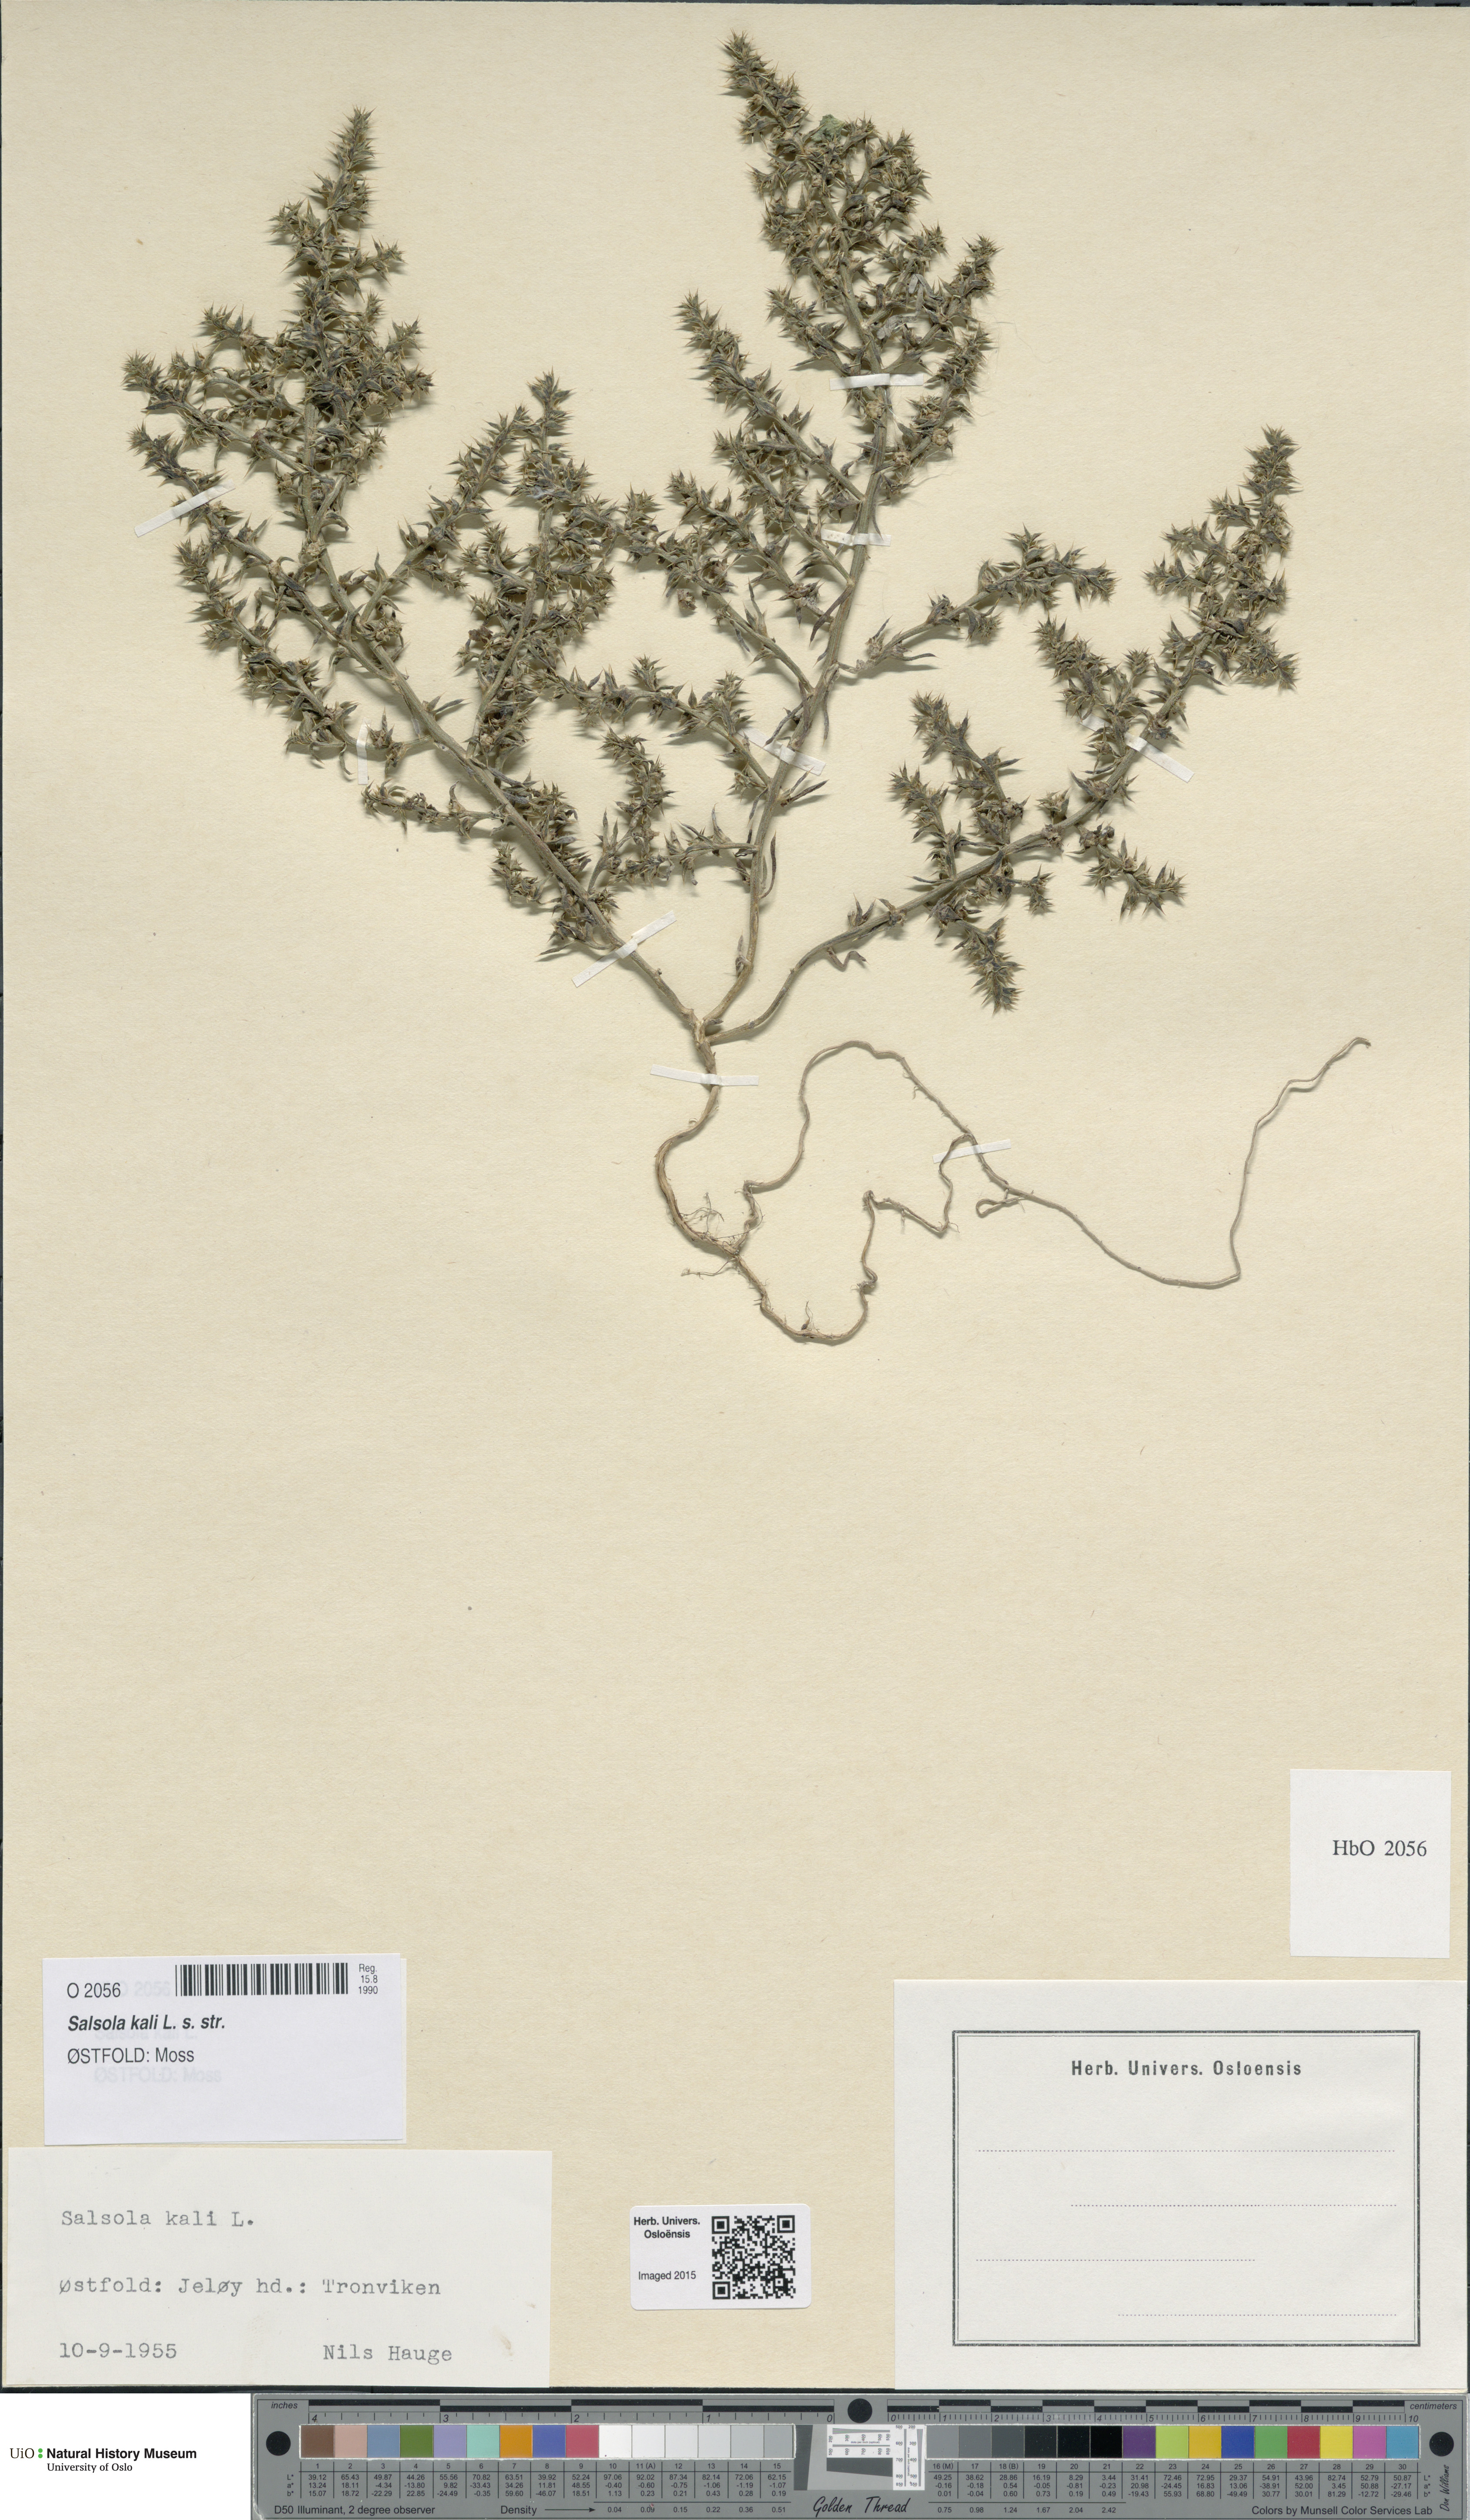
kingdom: Plantae
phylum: Tracheophyta
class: Magnoliopsida
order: Caryophyllales
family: Amaranthaceae
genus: Salsola
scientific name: Salsola kali
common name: Saltwort
